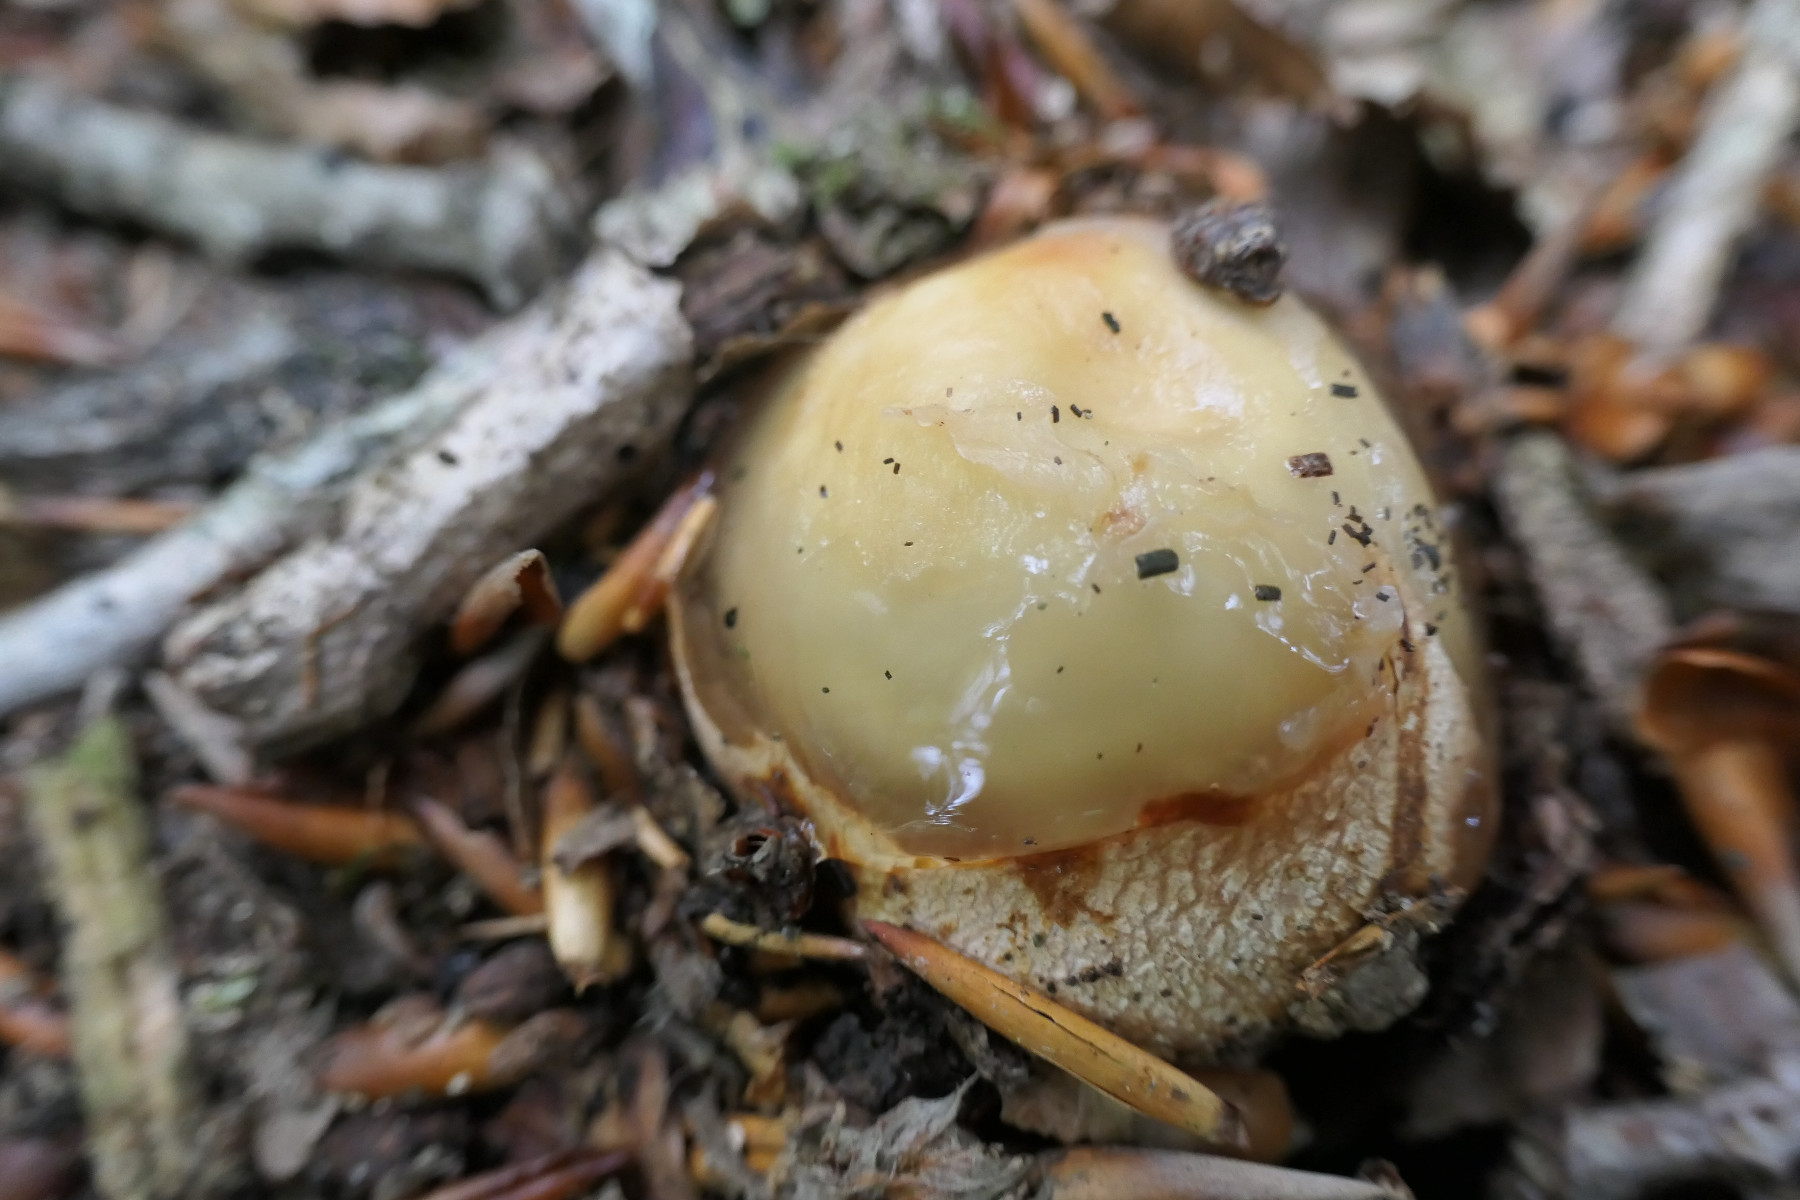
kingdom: Fungi
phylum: Basidiomycota
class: Agaricomycetes
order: Phallales
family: Phallaceae
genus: Phallus
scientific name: Phallus impudicus
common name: almindelig stinksvamp
